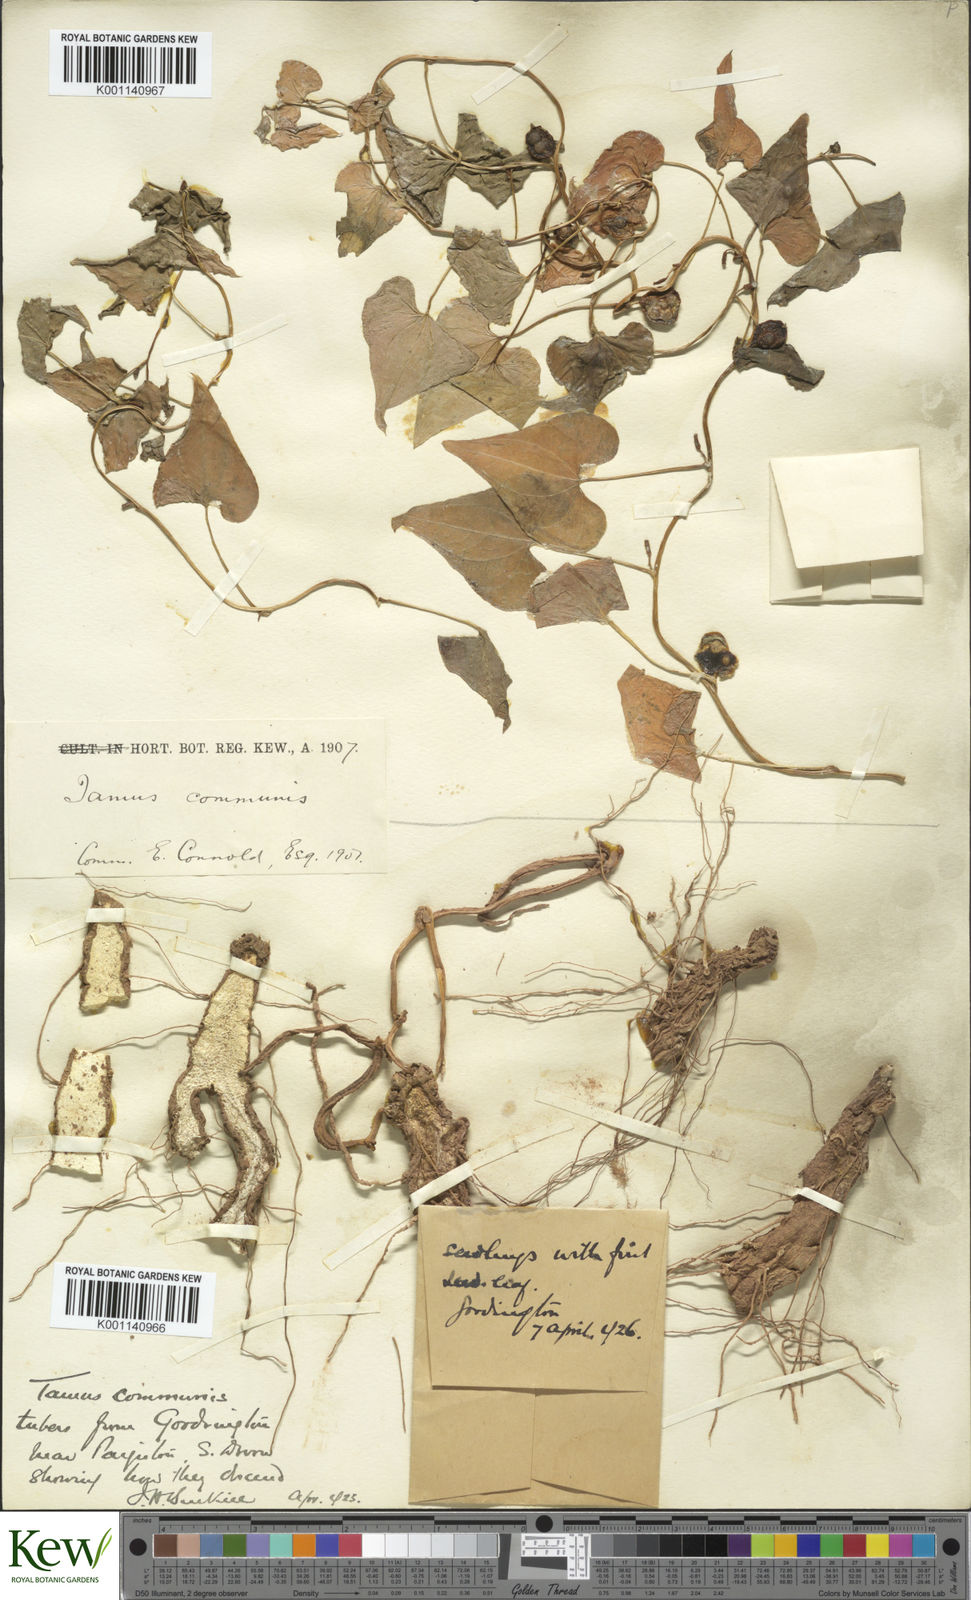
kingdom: Plantae
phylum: Tracheophyta
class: Liliopsida
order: Dioscoreales
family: Dioscoreaceae
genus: Dioscorea
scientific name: Dioscorea communis
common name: Black-bindweed
